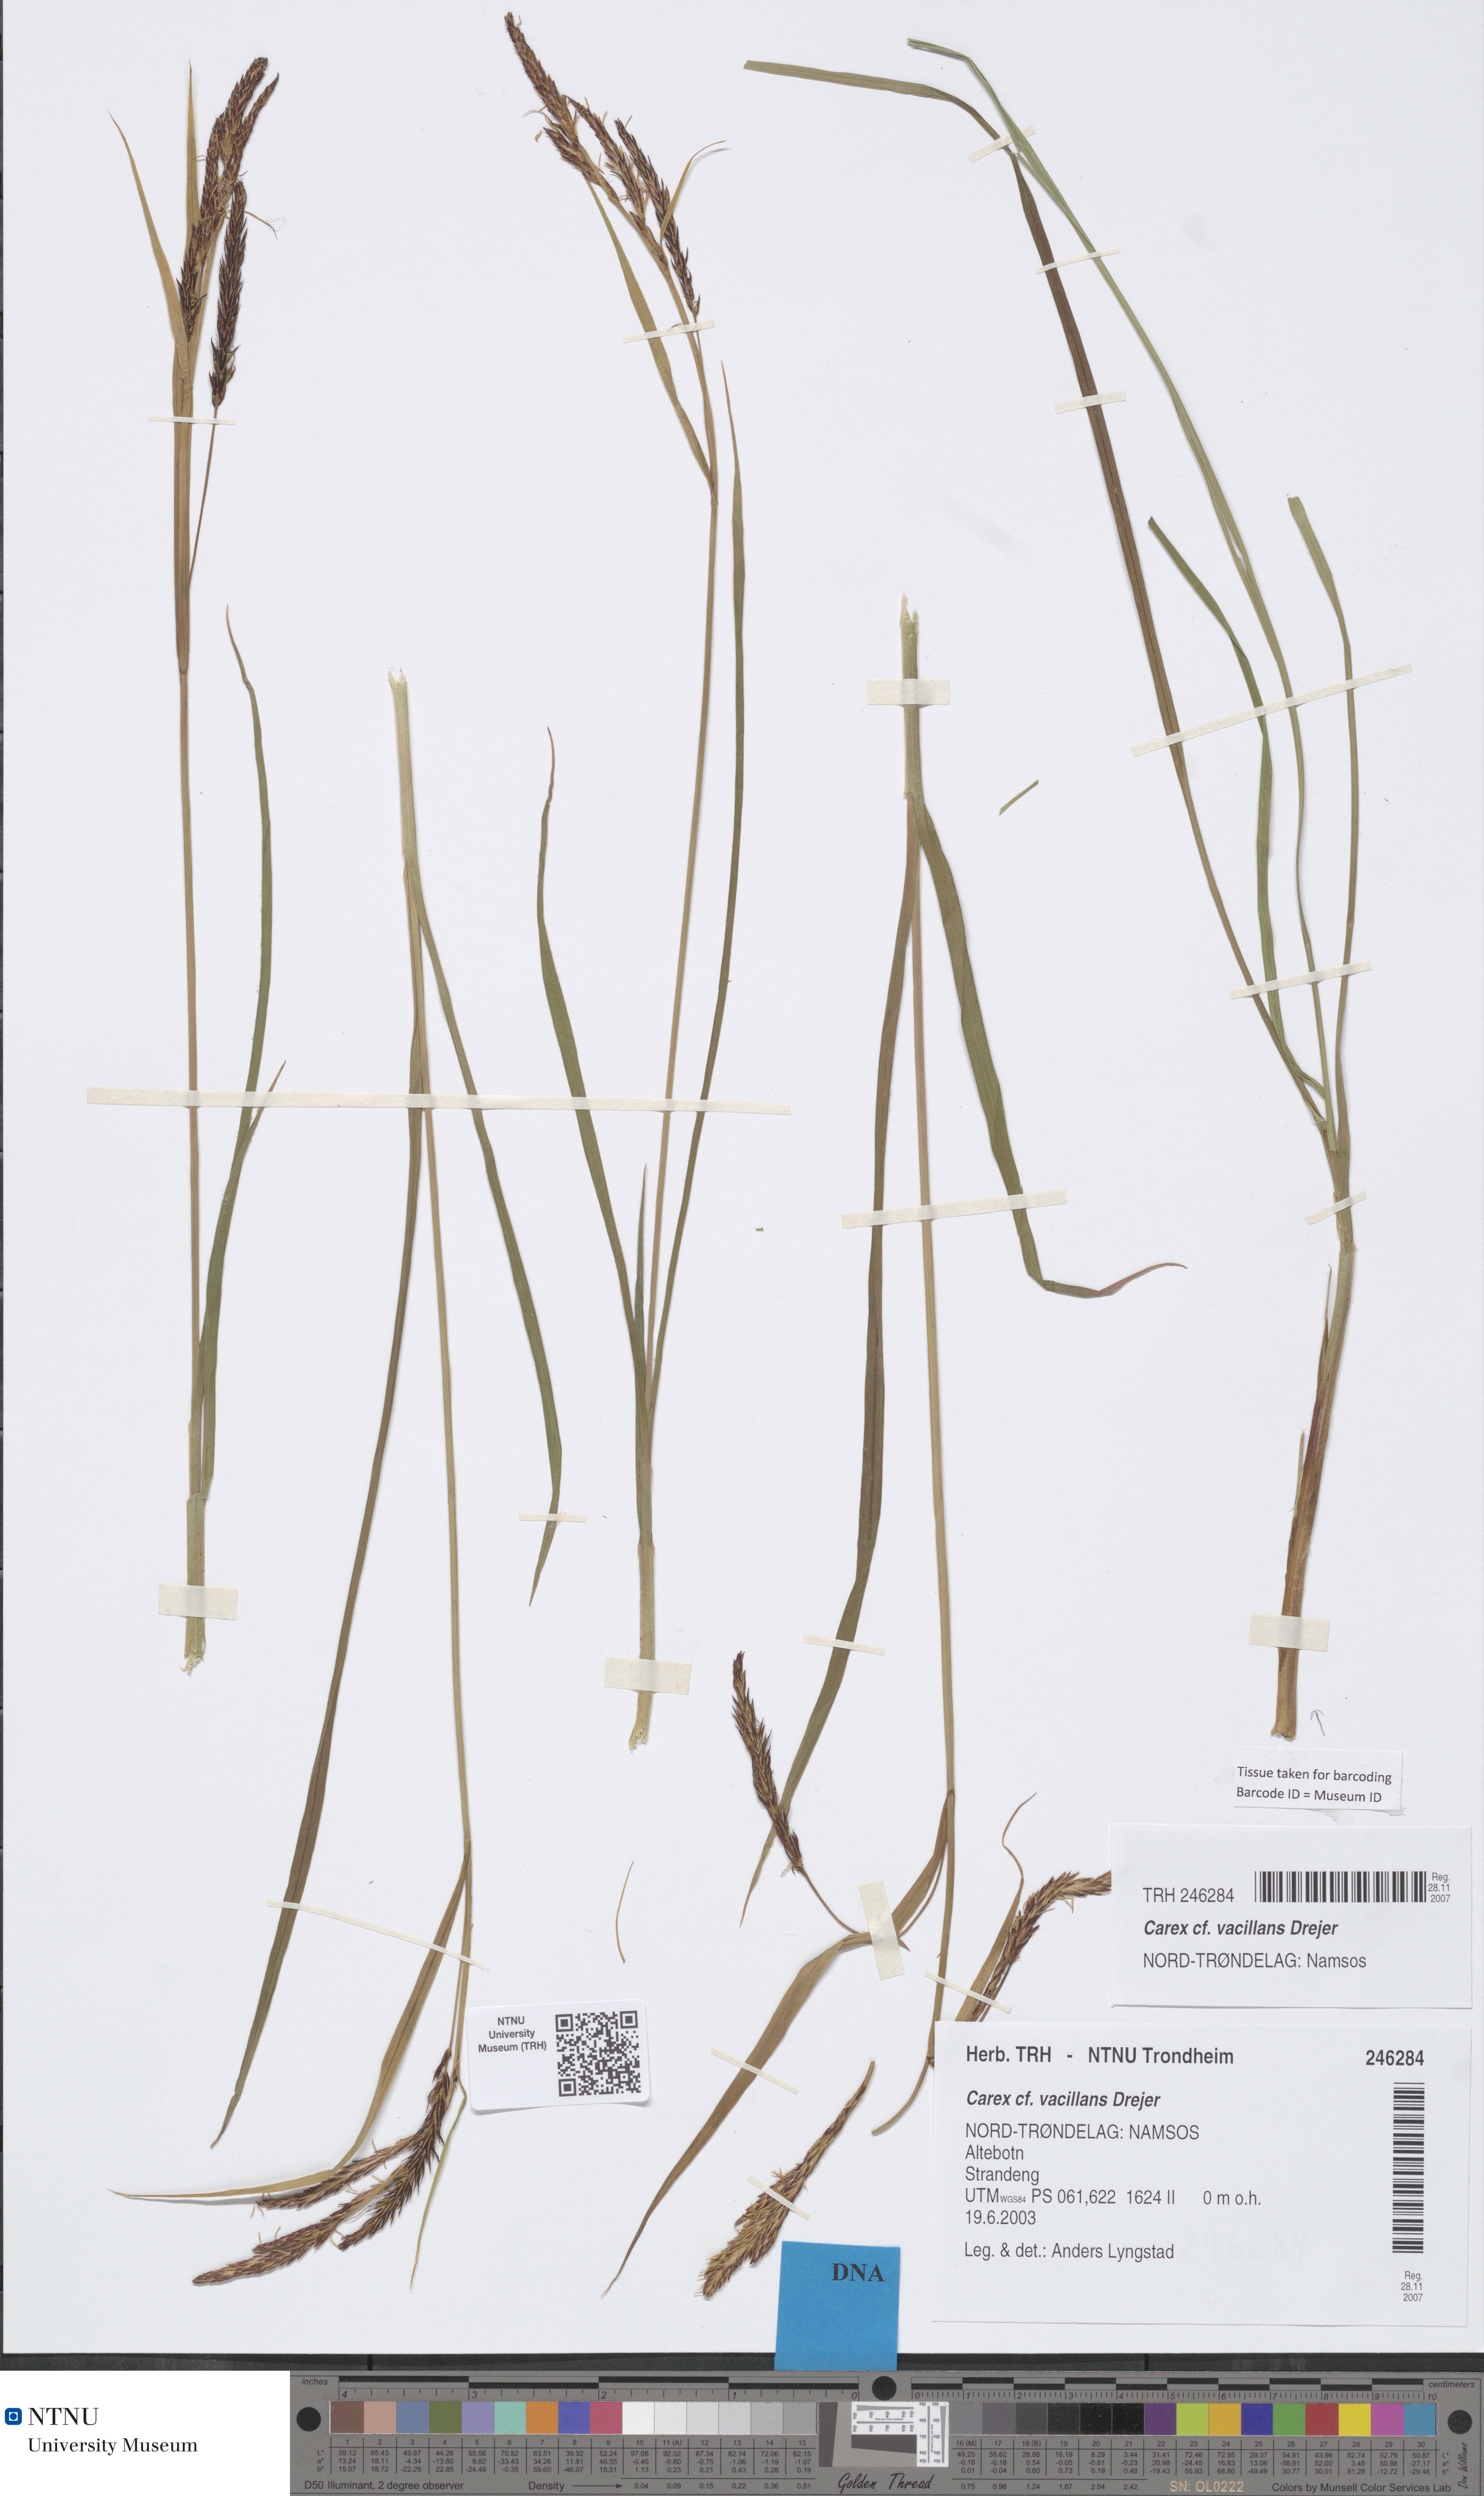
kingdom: Plantae
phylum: Tracheophyta
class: Liliopsida
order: Poales
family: Cyperaceae
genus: Carex
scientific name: Carex vacillans
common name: Sedge
